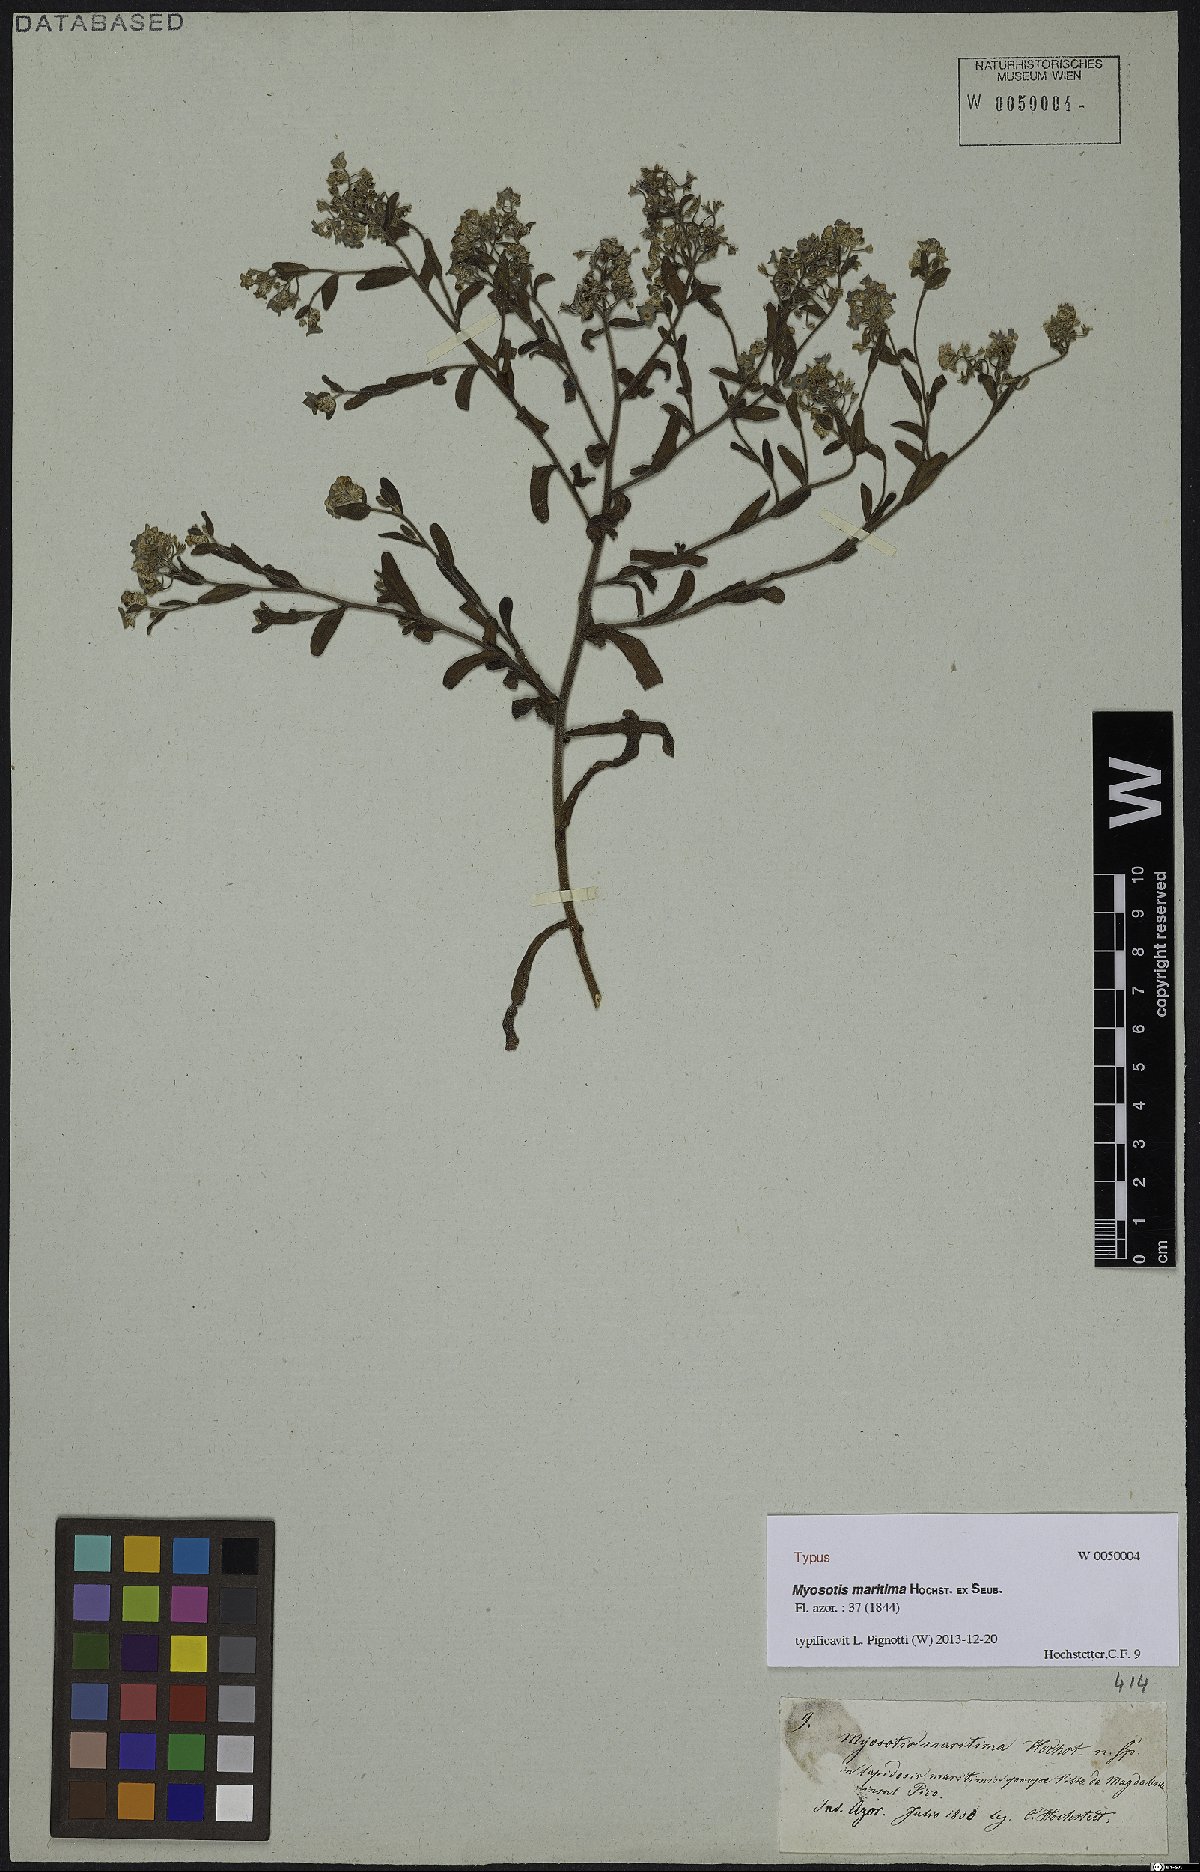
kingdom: Plantae
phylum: Tracheophyta
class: Magnoliopsida
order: Boraginales
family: Boraginaceae
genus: Myosotis
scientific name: Myosotis maritima
